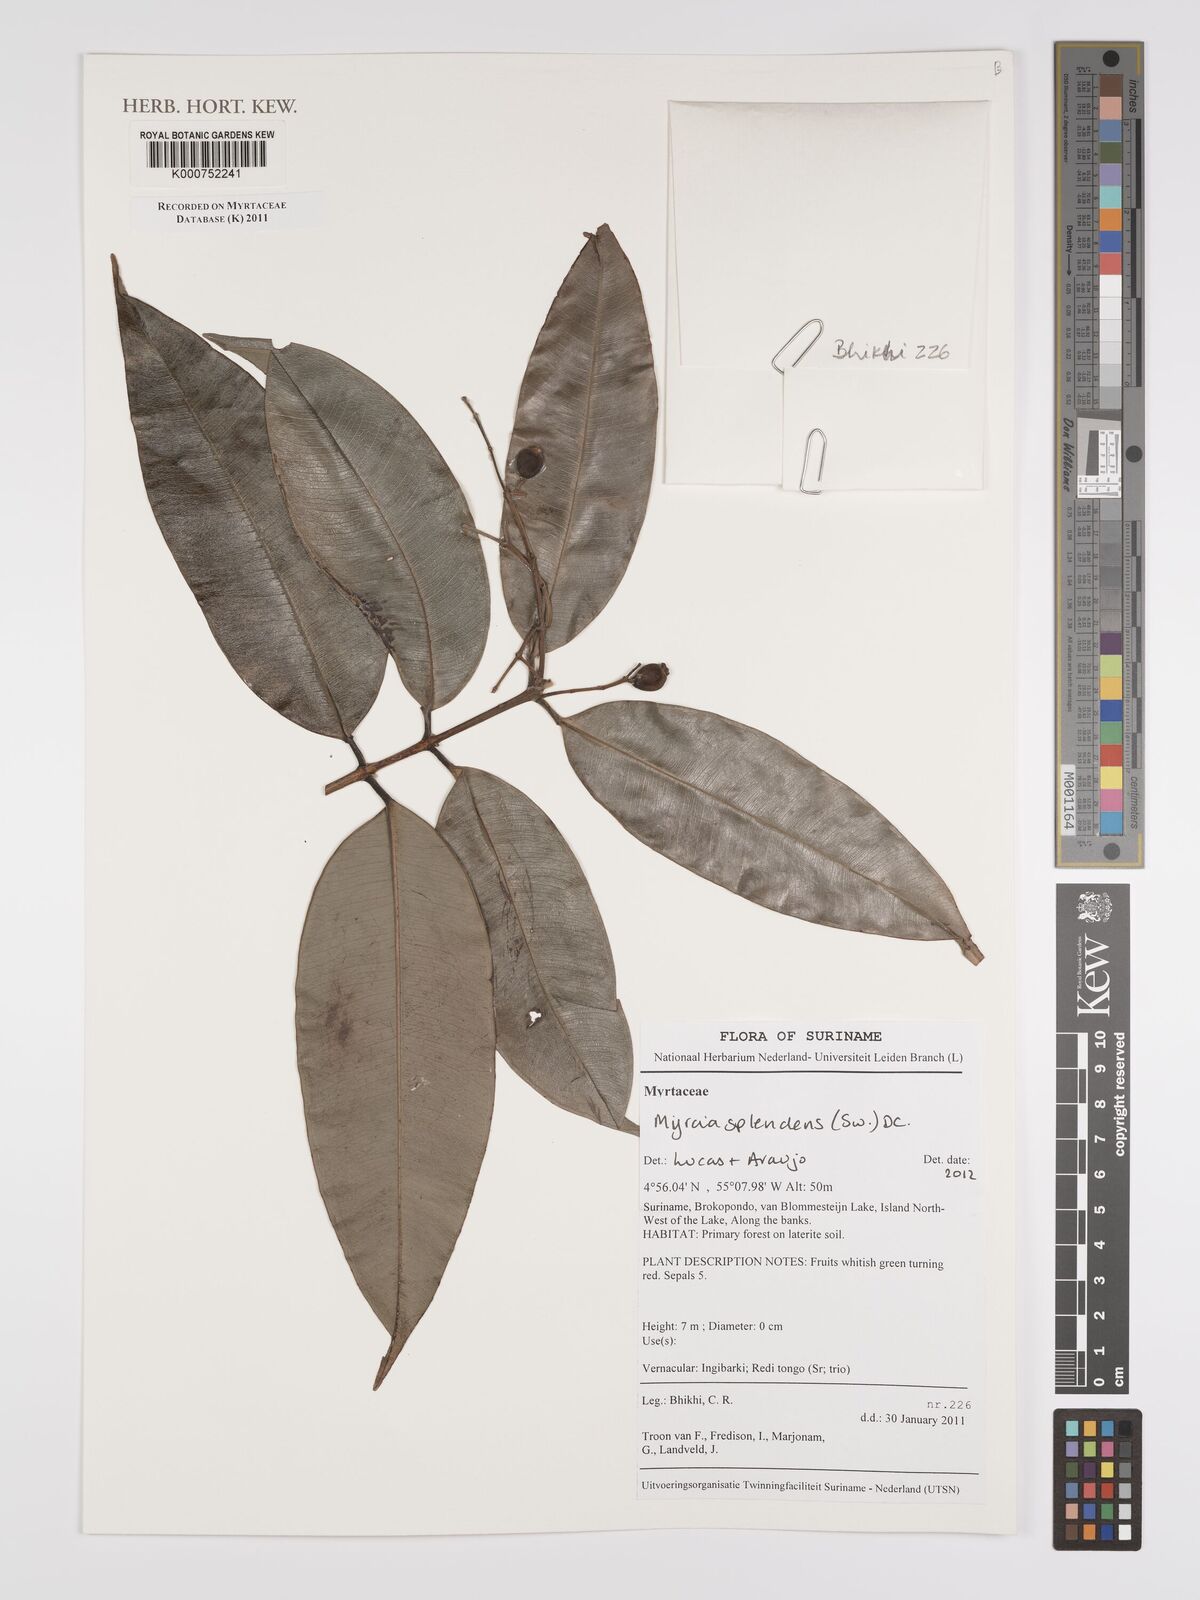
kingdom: Plantae
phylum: Tracheophyta
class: Magnoliopsida
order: Myrtales
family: Myrtaceae
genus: Myrcia
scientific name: Myrcia splendens
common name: Surinam cherry
